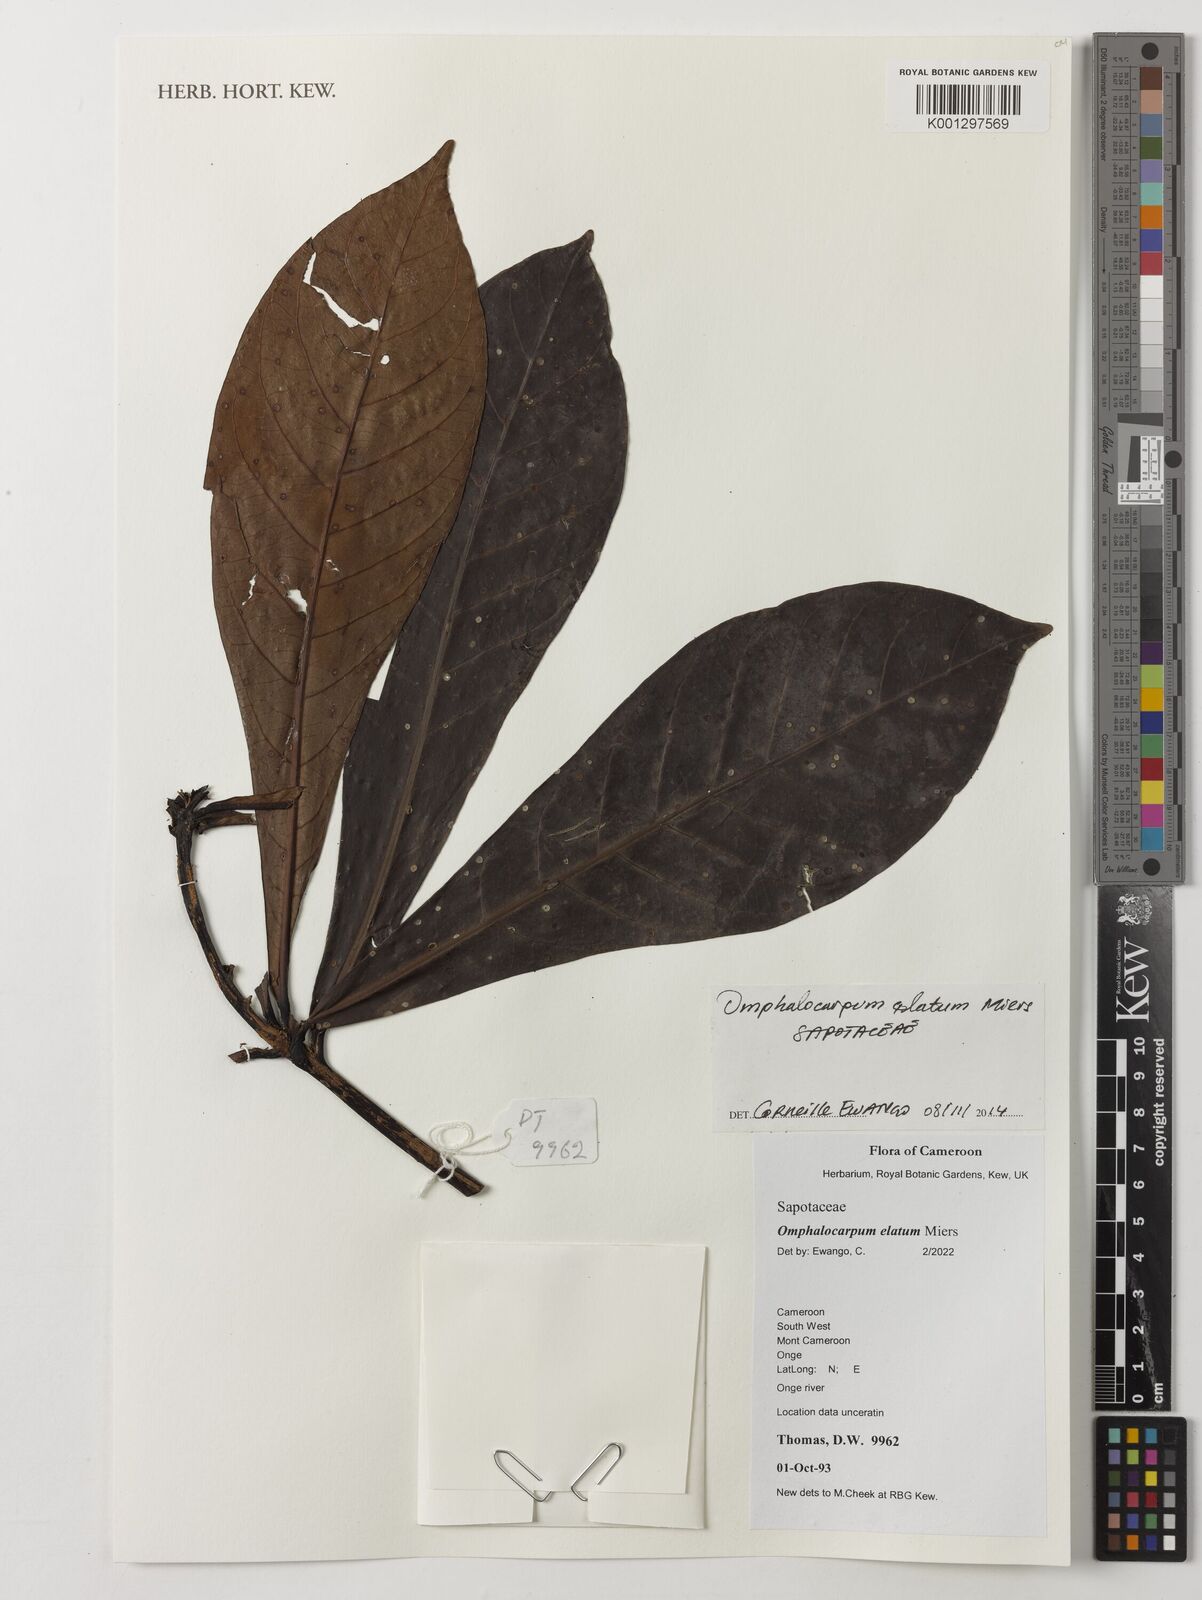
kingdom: Plantae
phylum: Tracheophyta
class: Magnoliopsida
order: Ericales
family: Sapotaceae
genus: Omphalocarpum
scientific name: Omphalocarpum elatum
